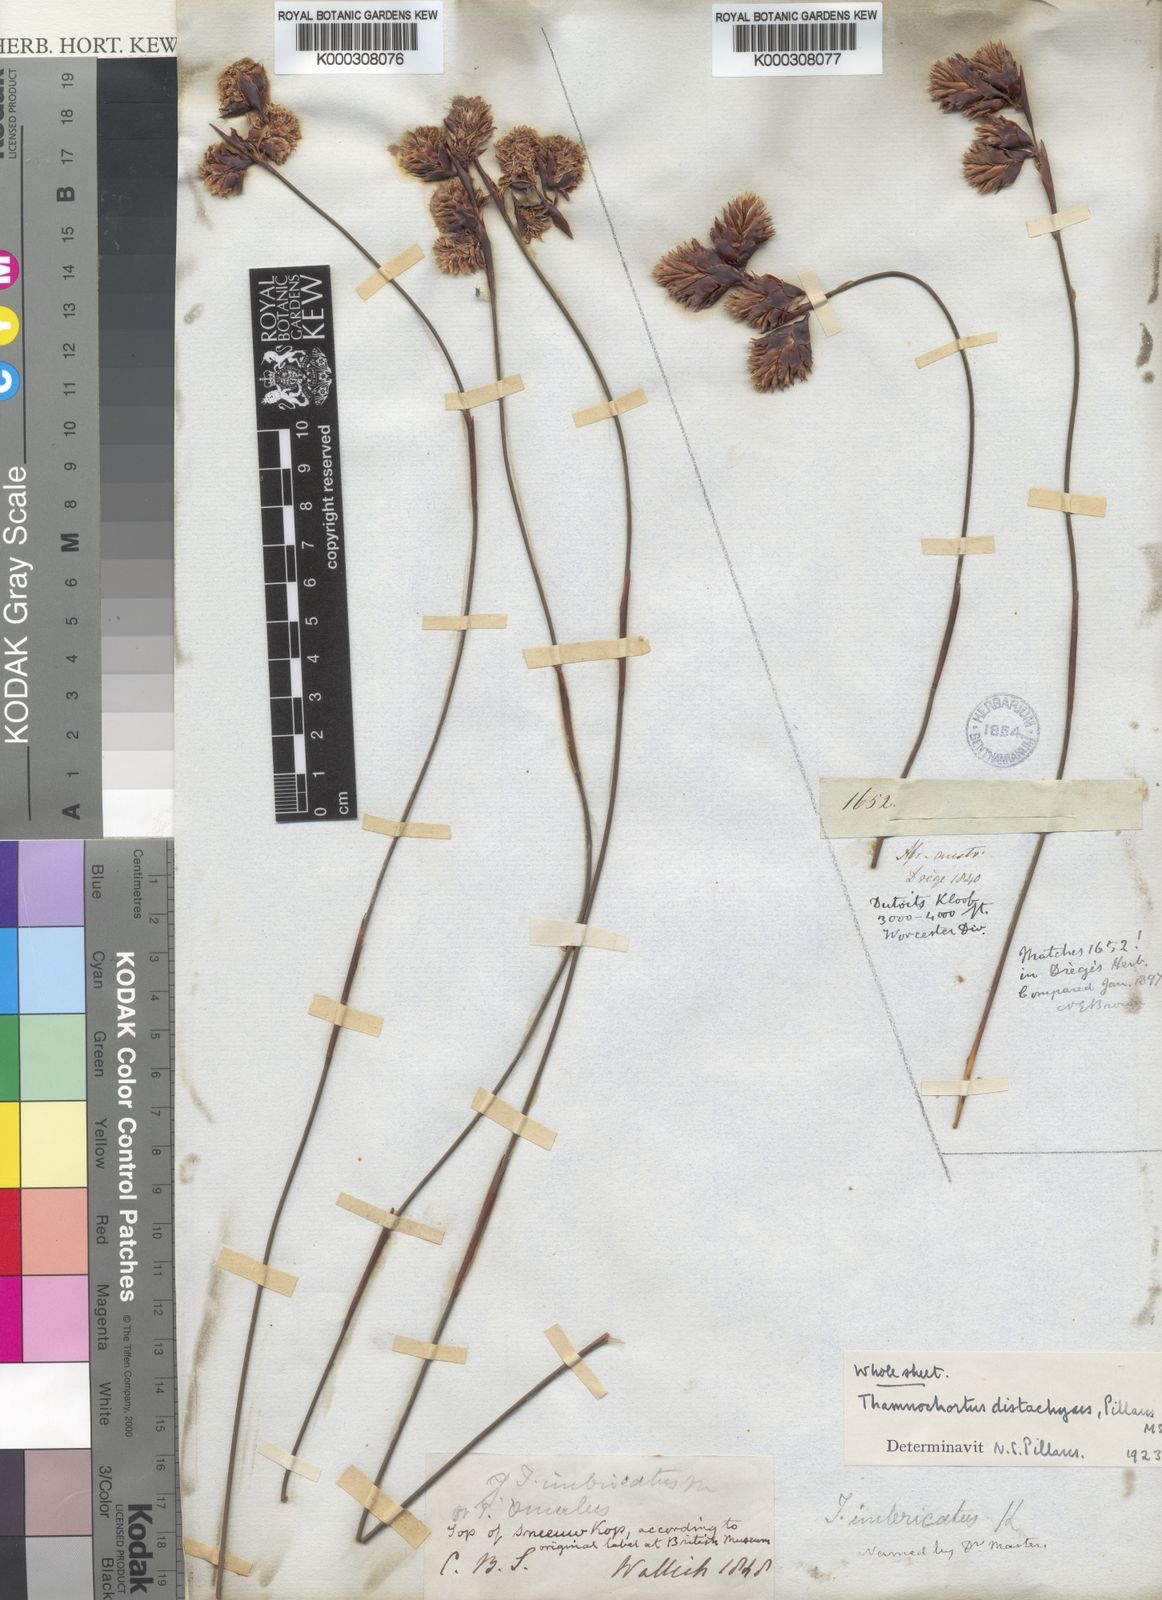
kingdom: Plantae
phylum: Tracheophyta
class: Liliopsida
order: Poales
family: Restionaceae
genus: Staberoha
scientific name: Staberoha aemula
